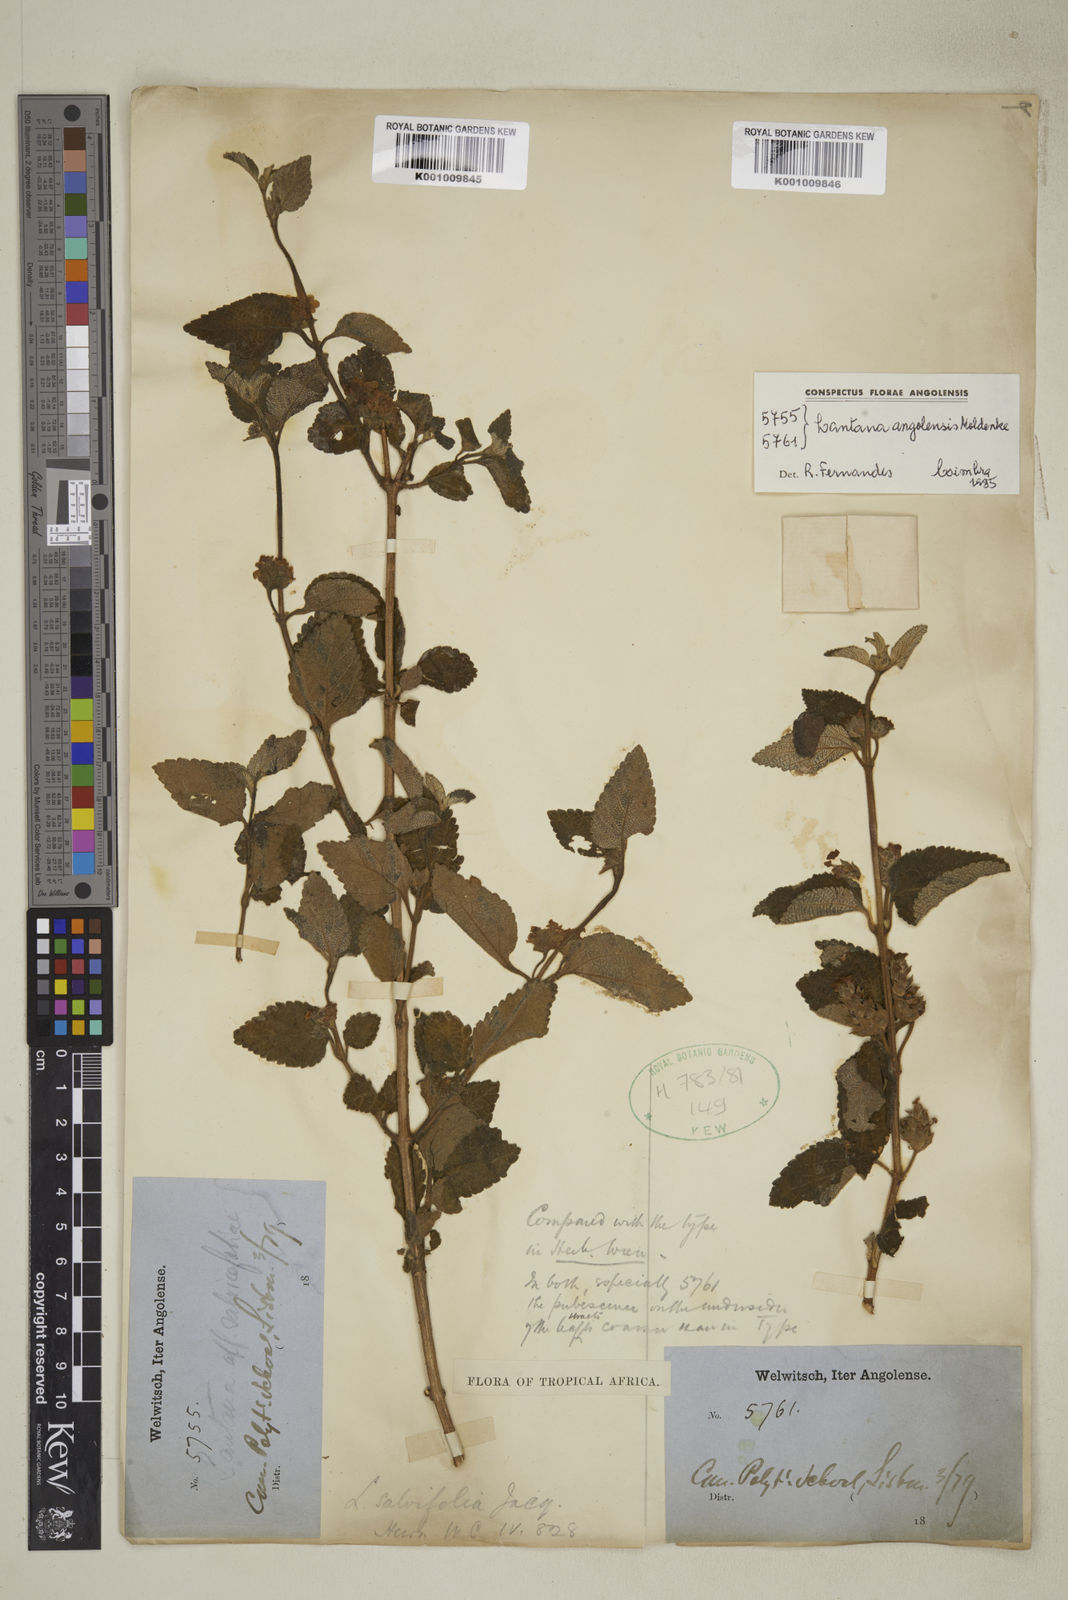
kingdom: Plantae
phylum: Tracheophyta
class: Magnoliopsida
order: Lamiales
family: Verbenaceae
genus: Lantana
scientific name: Lantana angolensis
